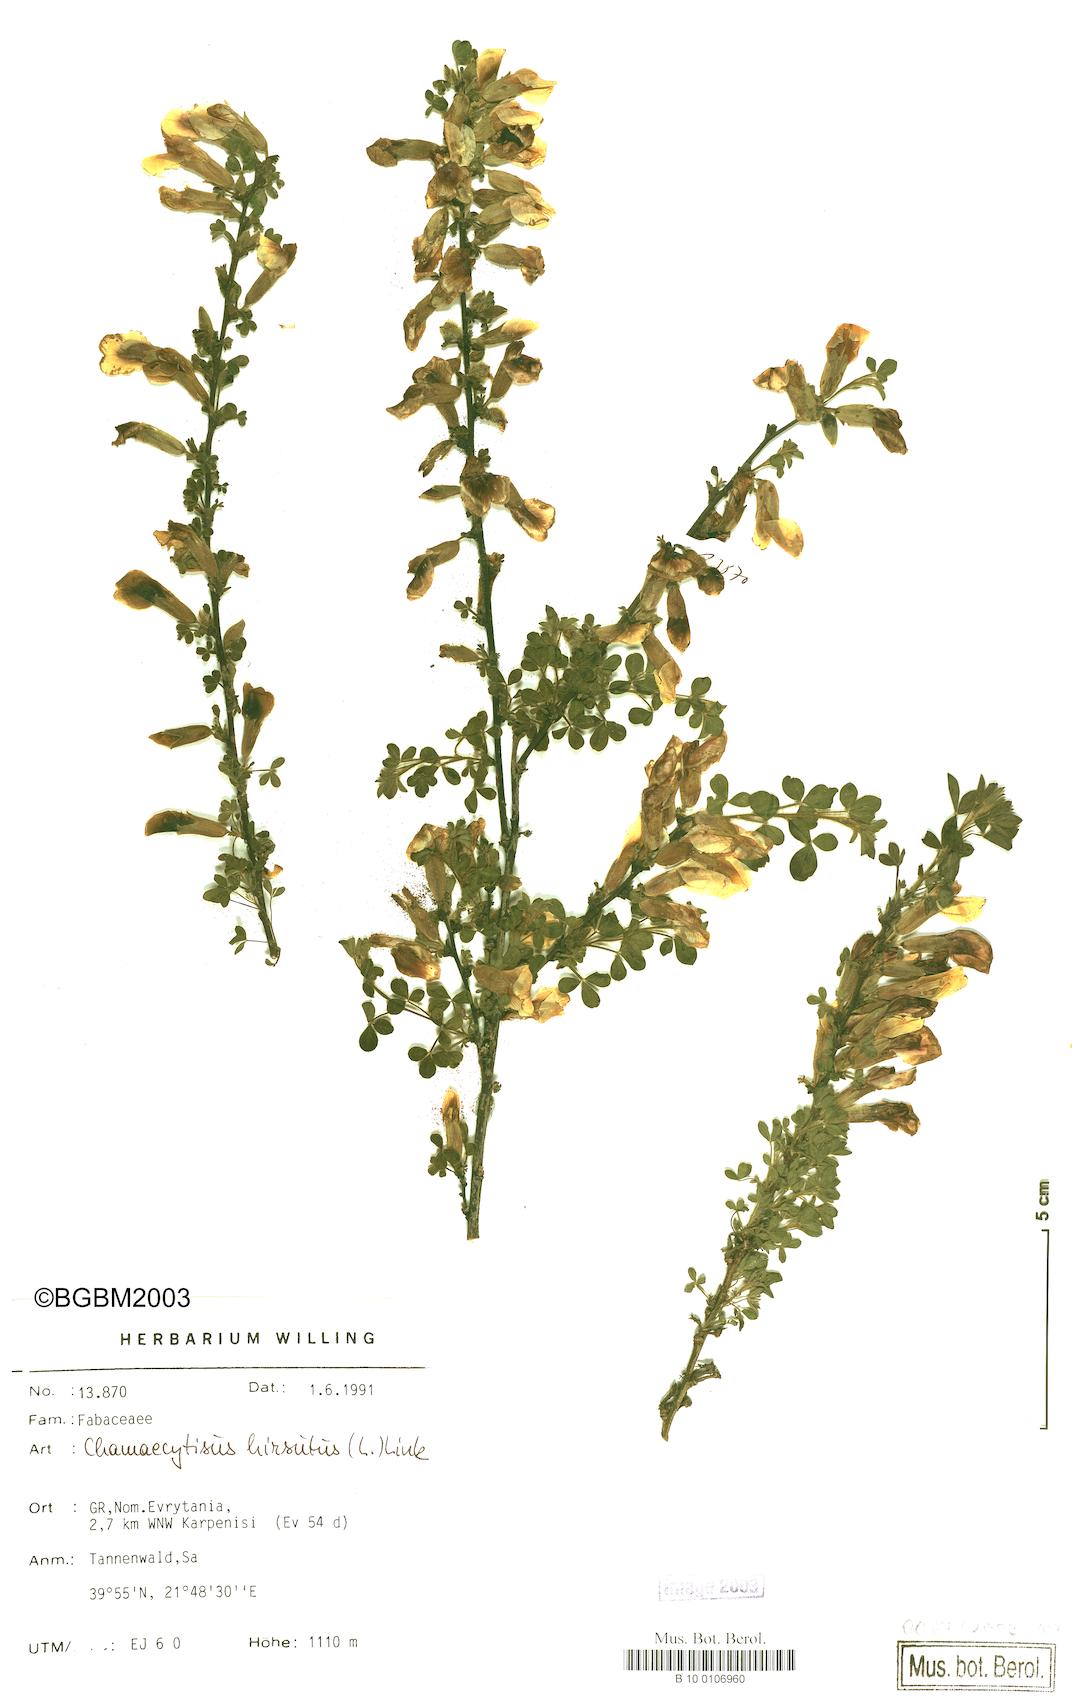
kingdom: Plantae
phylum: Tracheophyta
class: Magnoliopsida
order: Fabales
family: Fabaceae
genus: Chamaecytisus
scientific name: Chamaecytisus hirsutus
